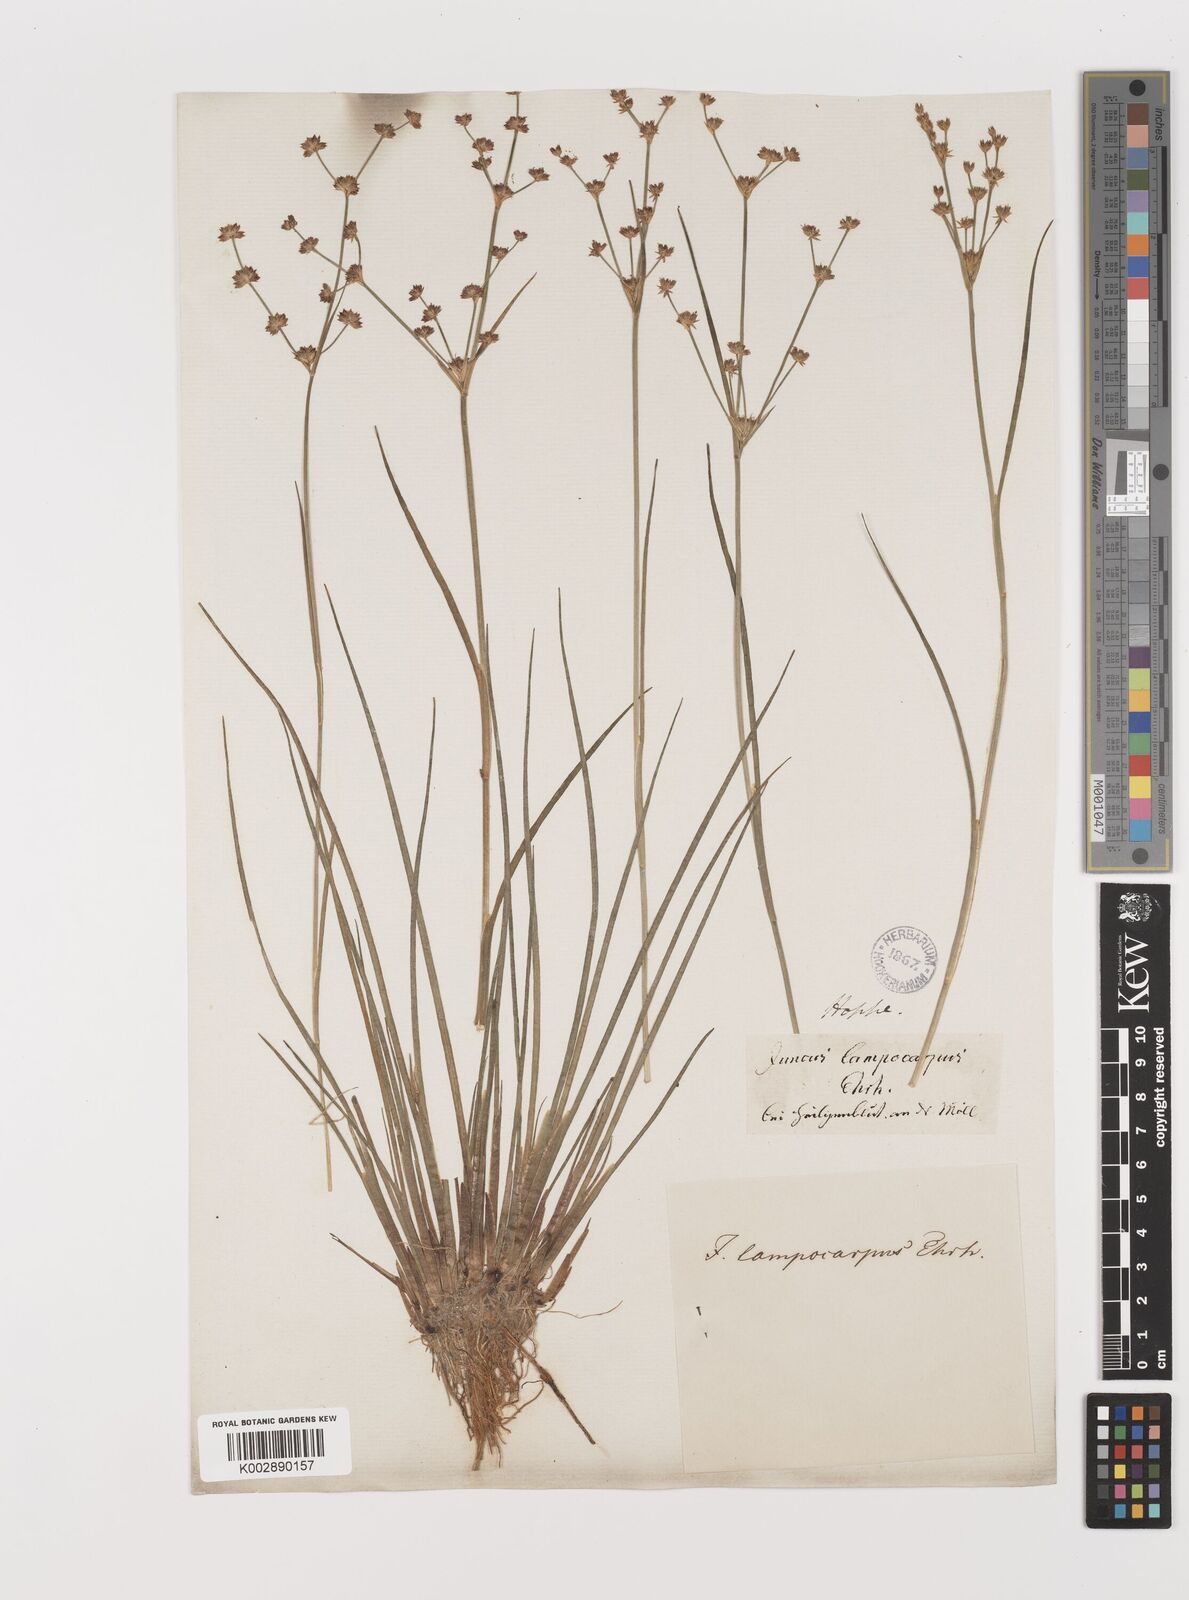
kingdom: Plantae
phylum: Tracheophyta
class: Liliopsida
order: Poales
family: Juncaceae
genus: Juncus
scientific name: Juncus articulatus
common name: Jointed rush
